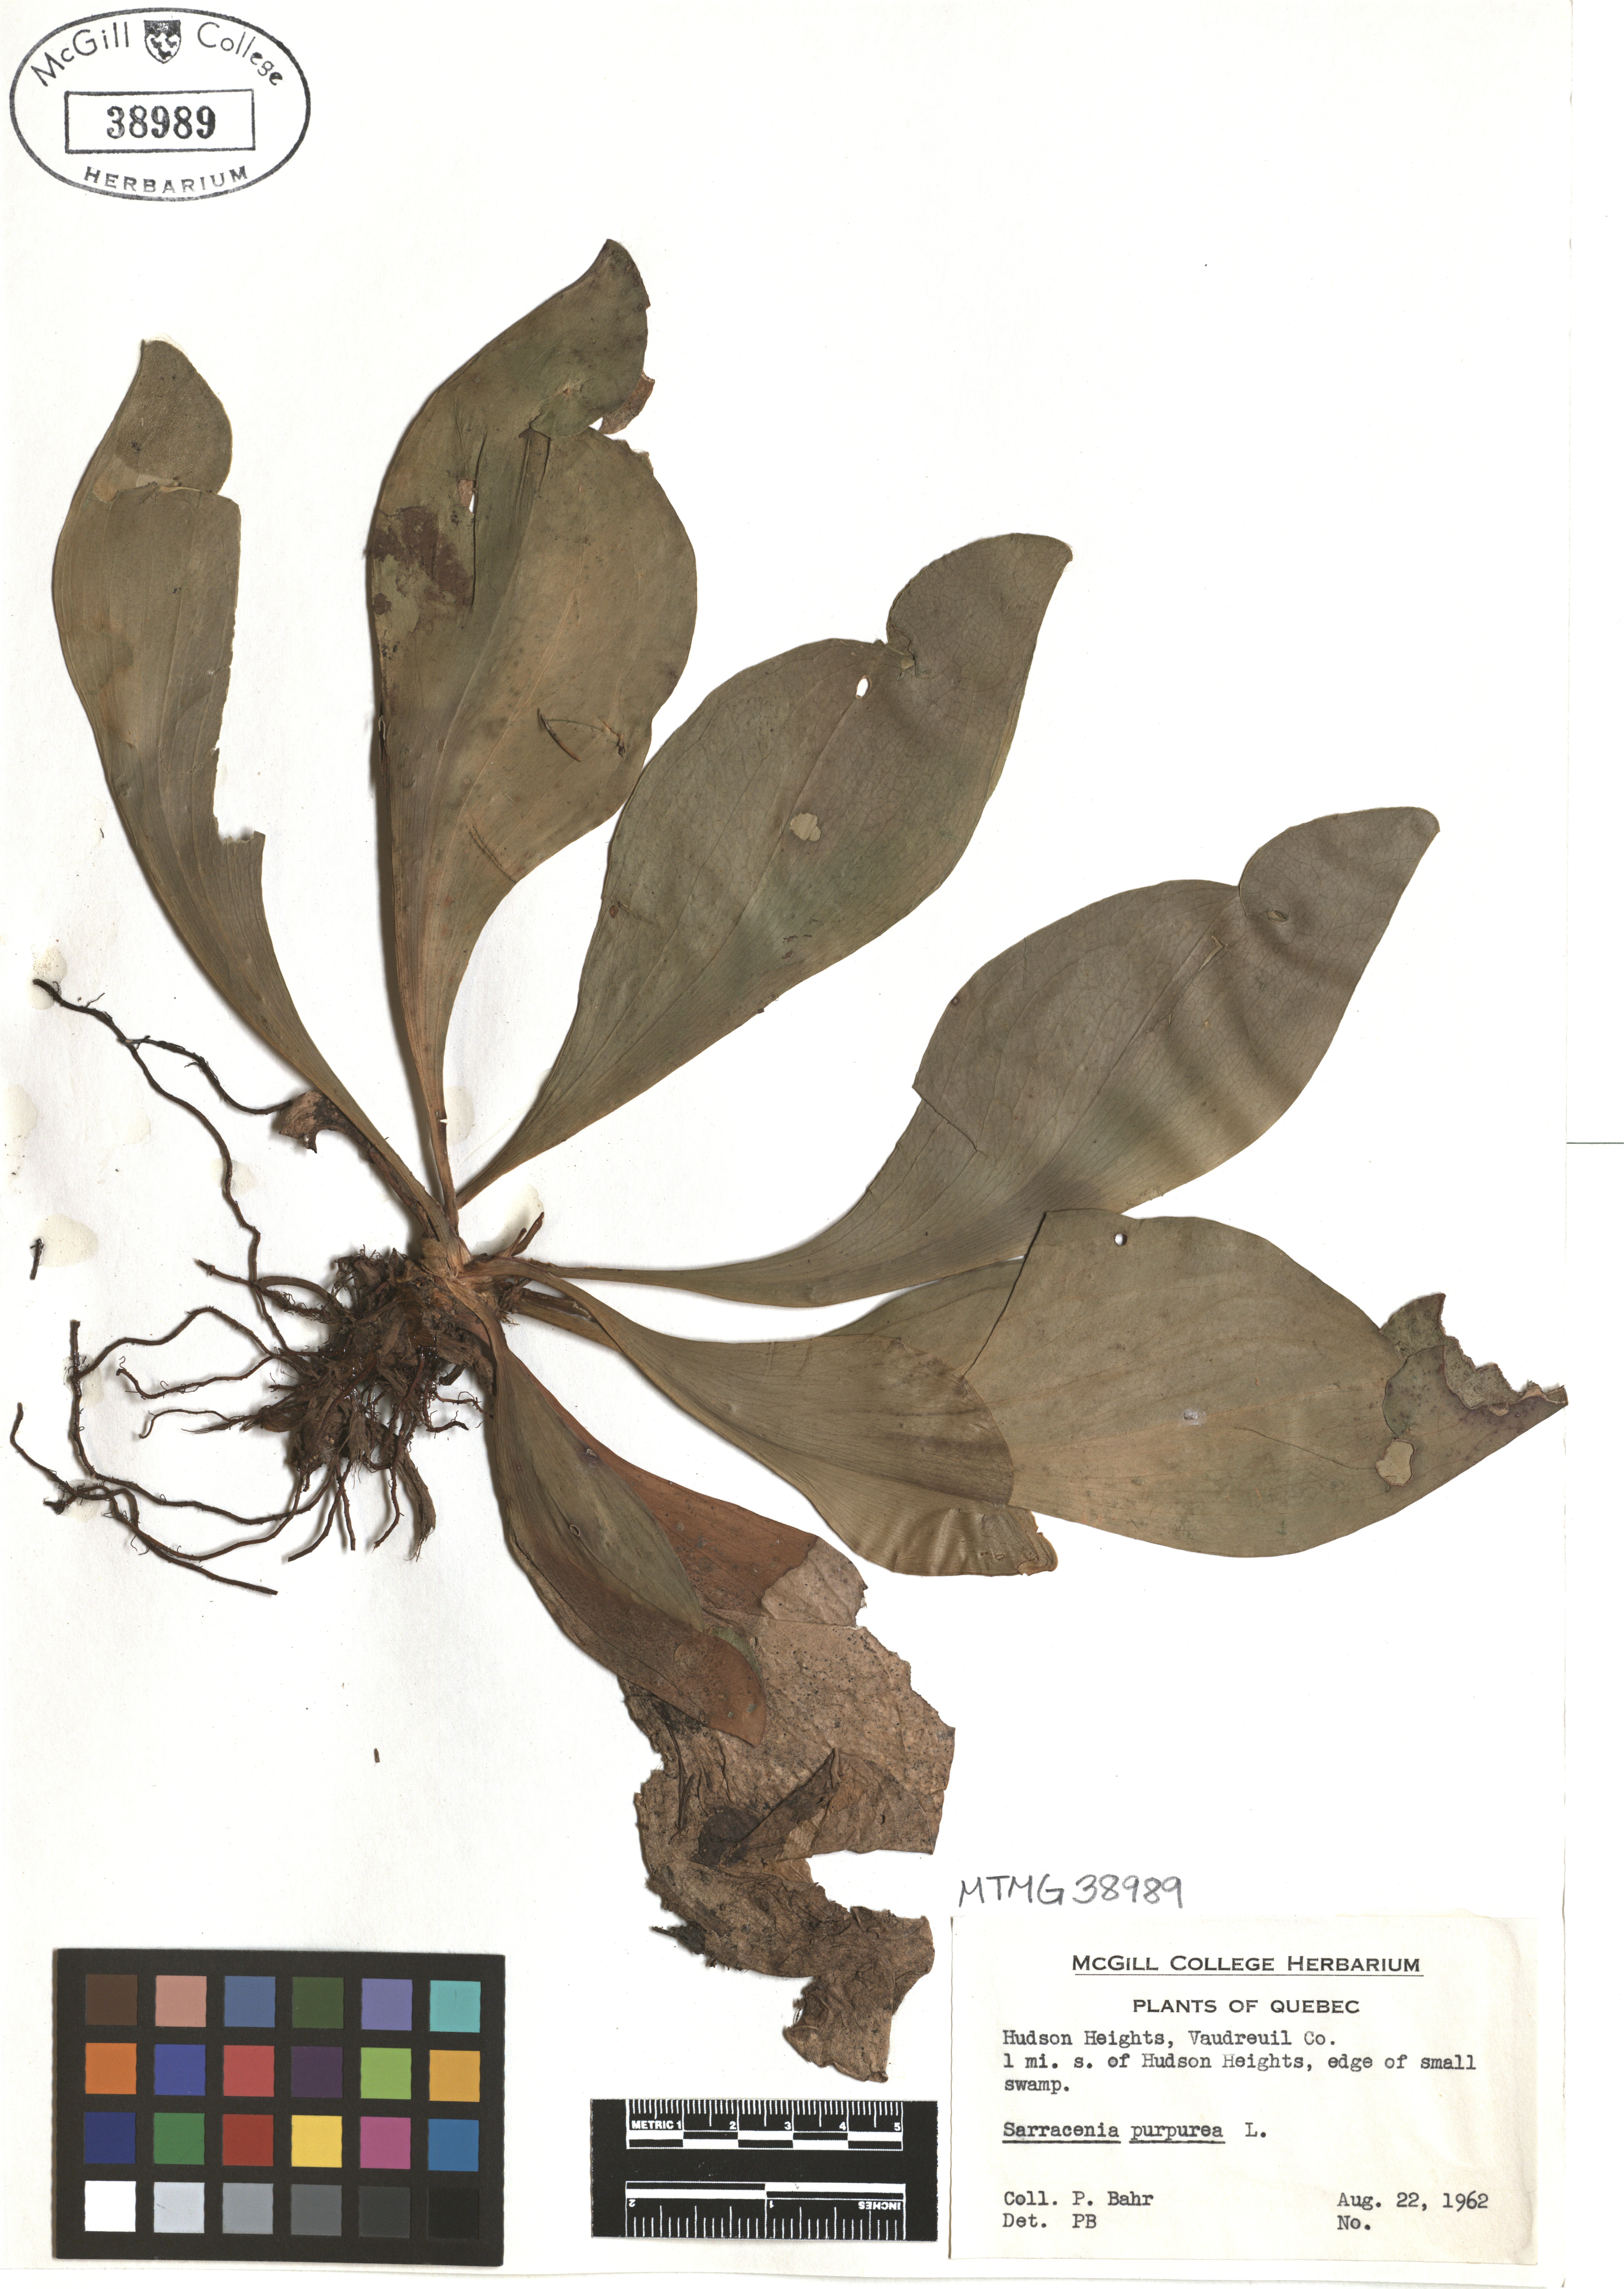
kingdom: Plantae
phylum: Tracheophyta
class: Magnoliopsida
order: Ericales
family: Sarraceniaceae
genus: Sarracenia
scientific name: Sarracenia purpurea
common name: Pitcherplant
